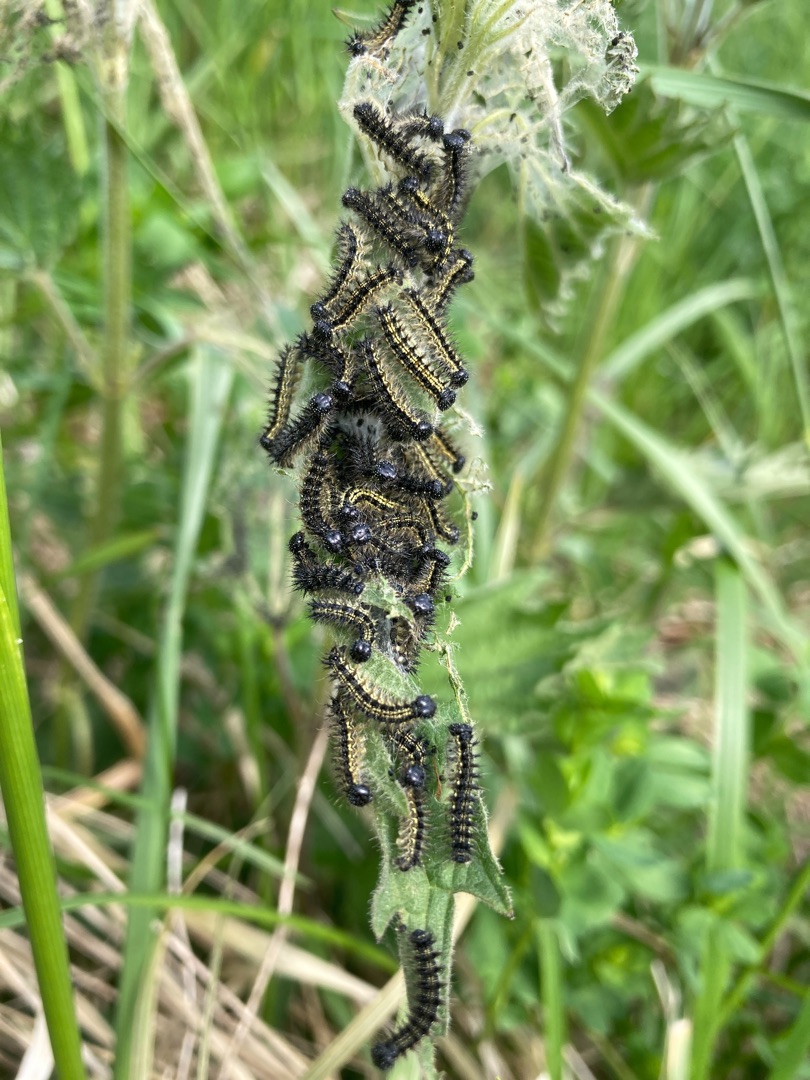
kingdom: Animalia
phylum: Arthropoda
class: Insecta
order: Lepidoptera
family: Nymphalidae
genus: Aglais
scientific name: Aglais urticae
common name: Nældens takvinge
